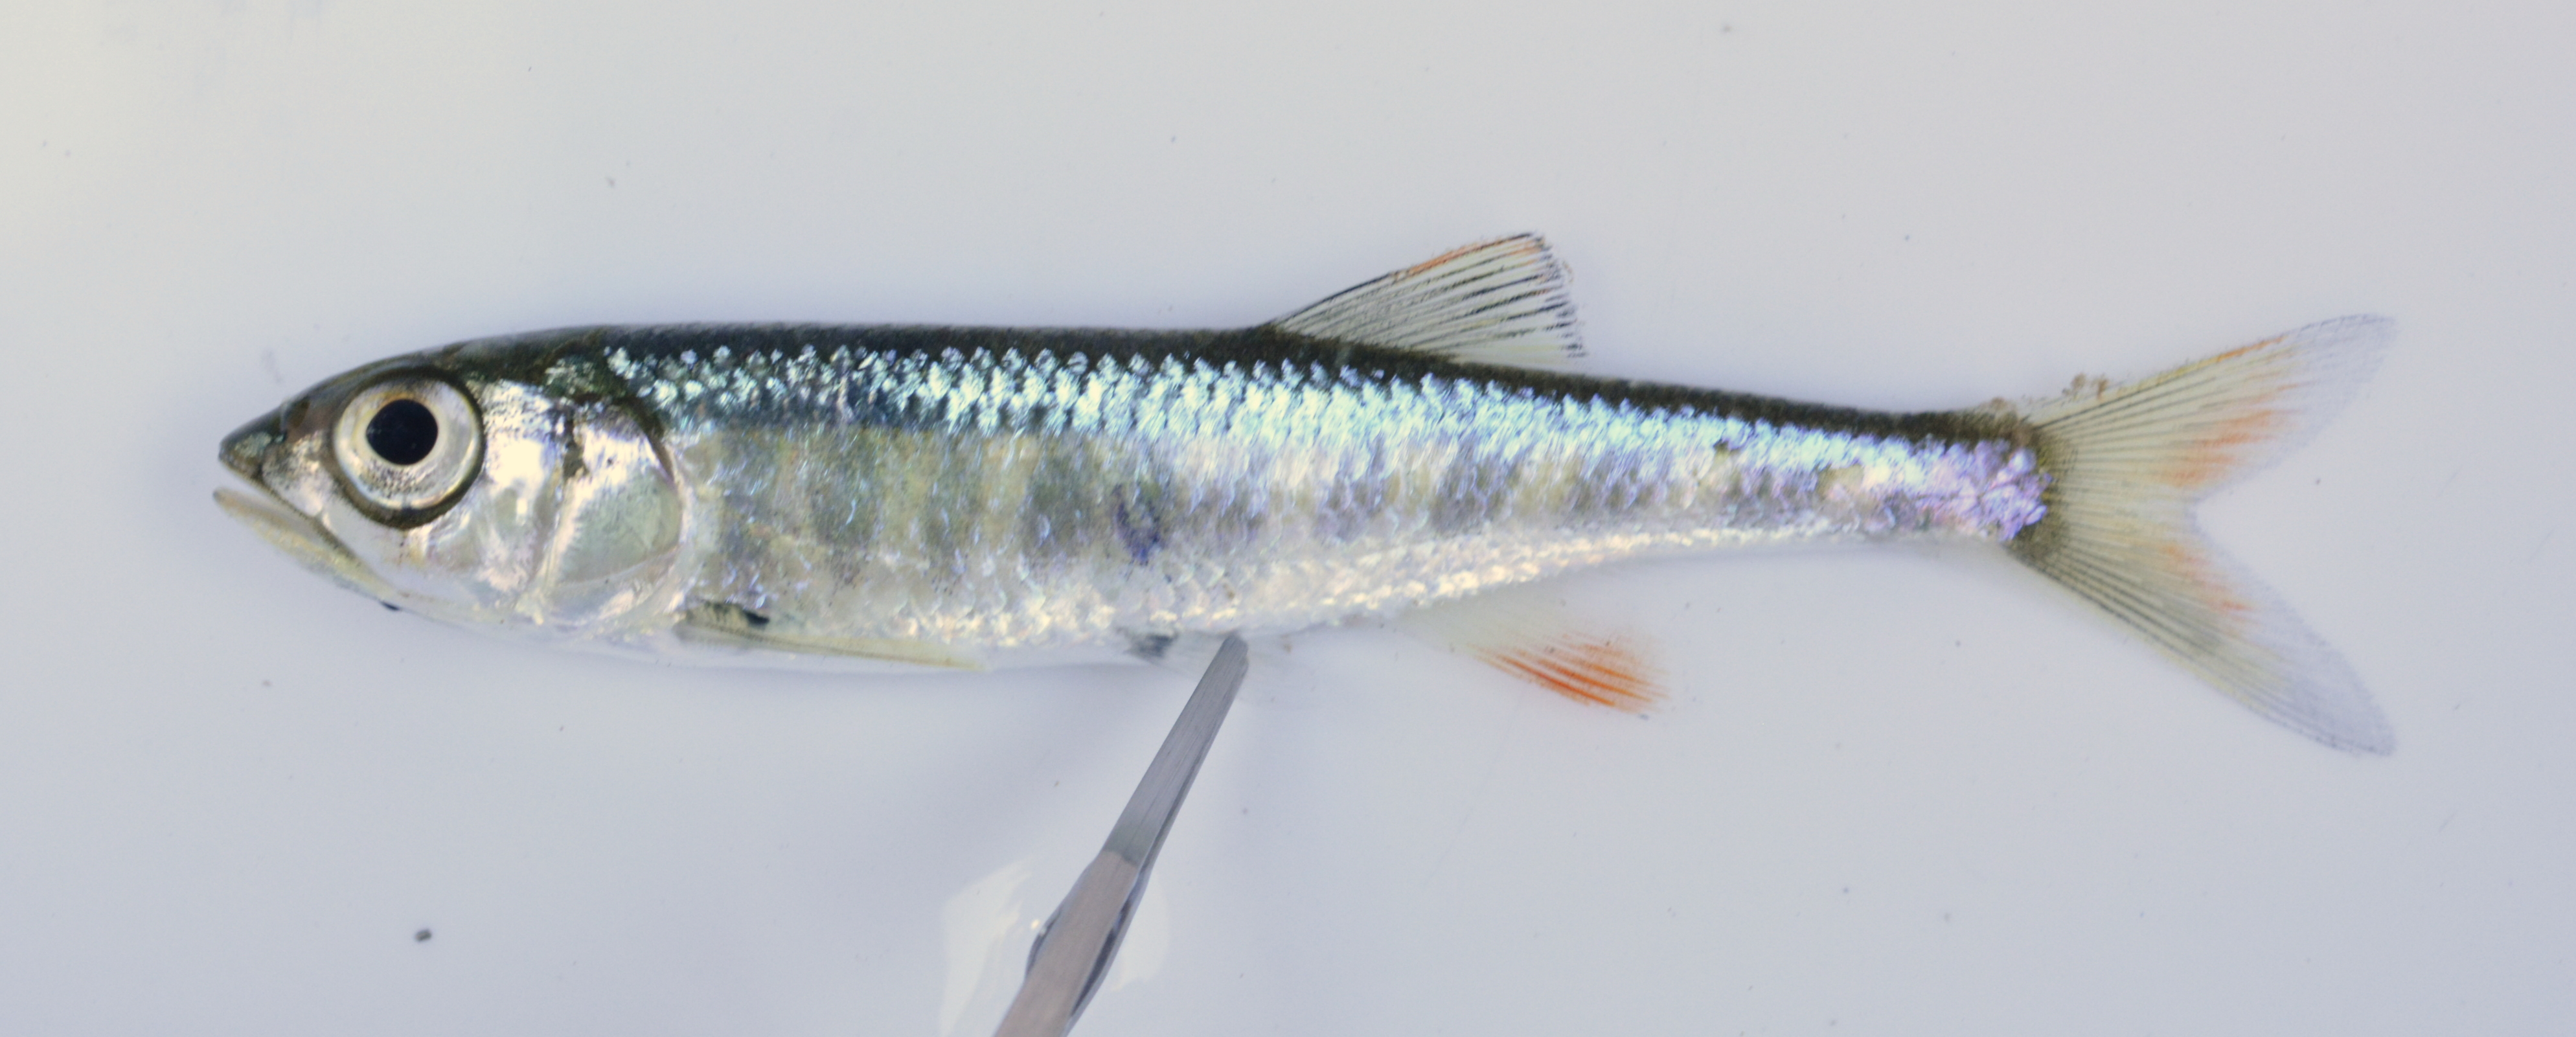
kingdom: Animalia
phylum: Chordata
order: Cypriniformes
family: Cyprinidae
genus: Opsaridium
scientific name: Opsaridium zambezense
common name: Barred minnow
